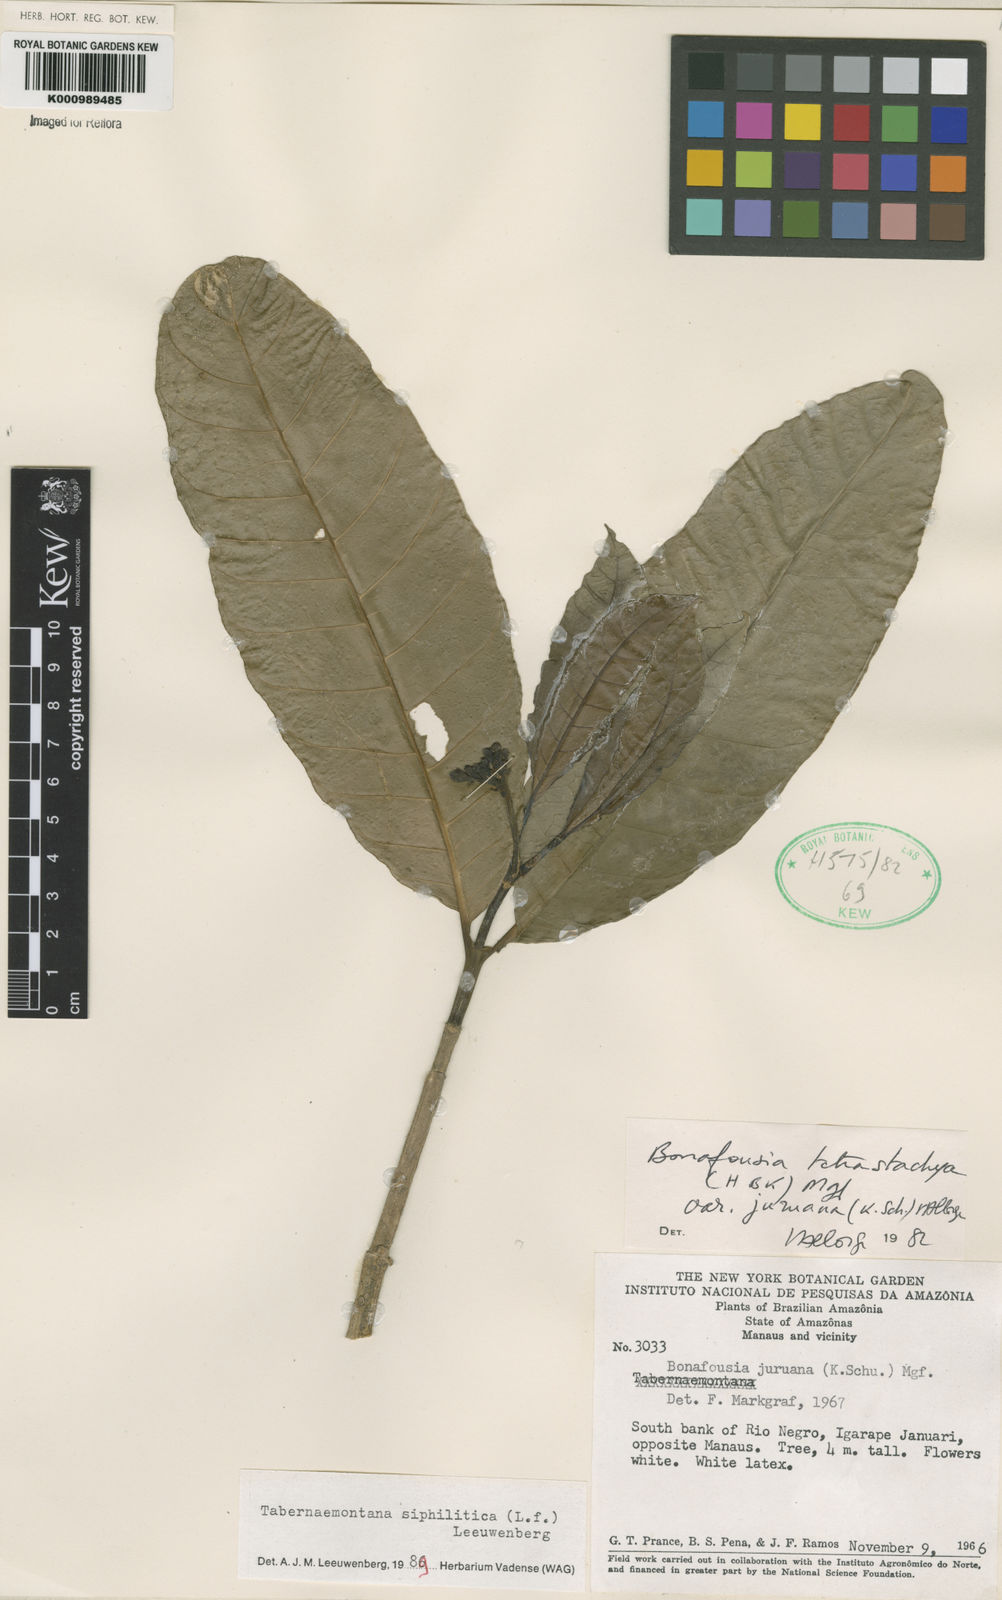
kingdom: Plantae
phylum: Tracheophyta
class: Magnoliopsida
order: Gentianales
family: Apocynaceae
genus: Tabernaemontana
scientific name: Tabernaemontana siphilitica
